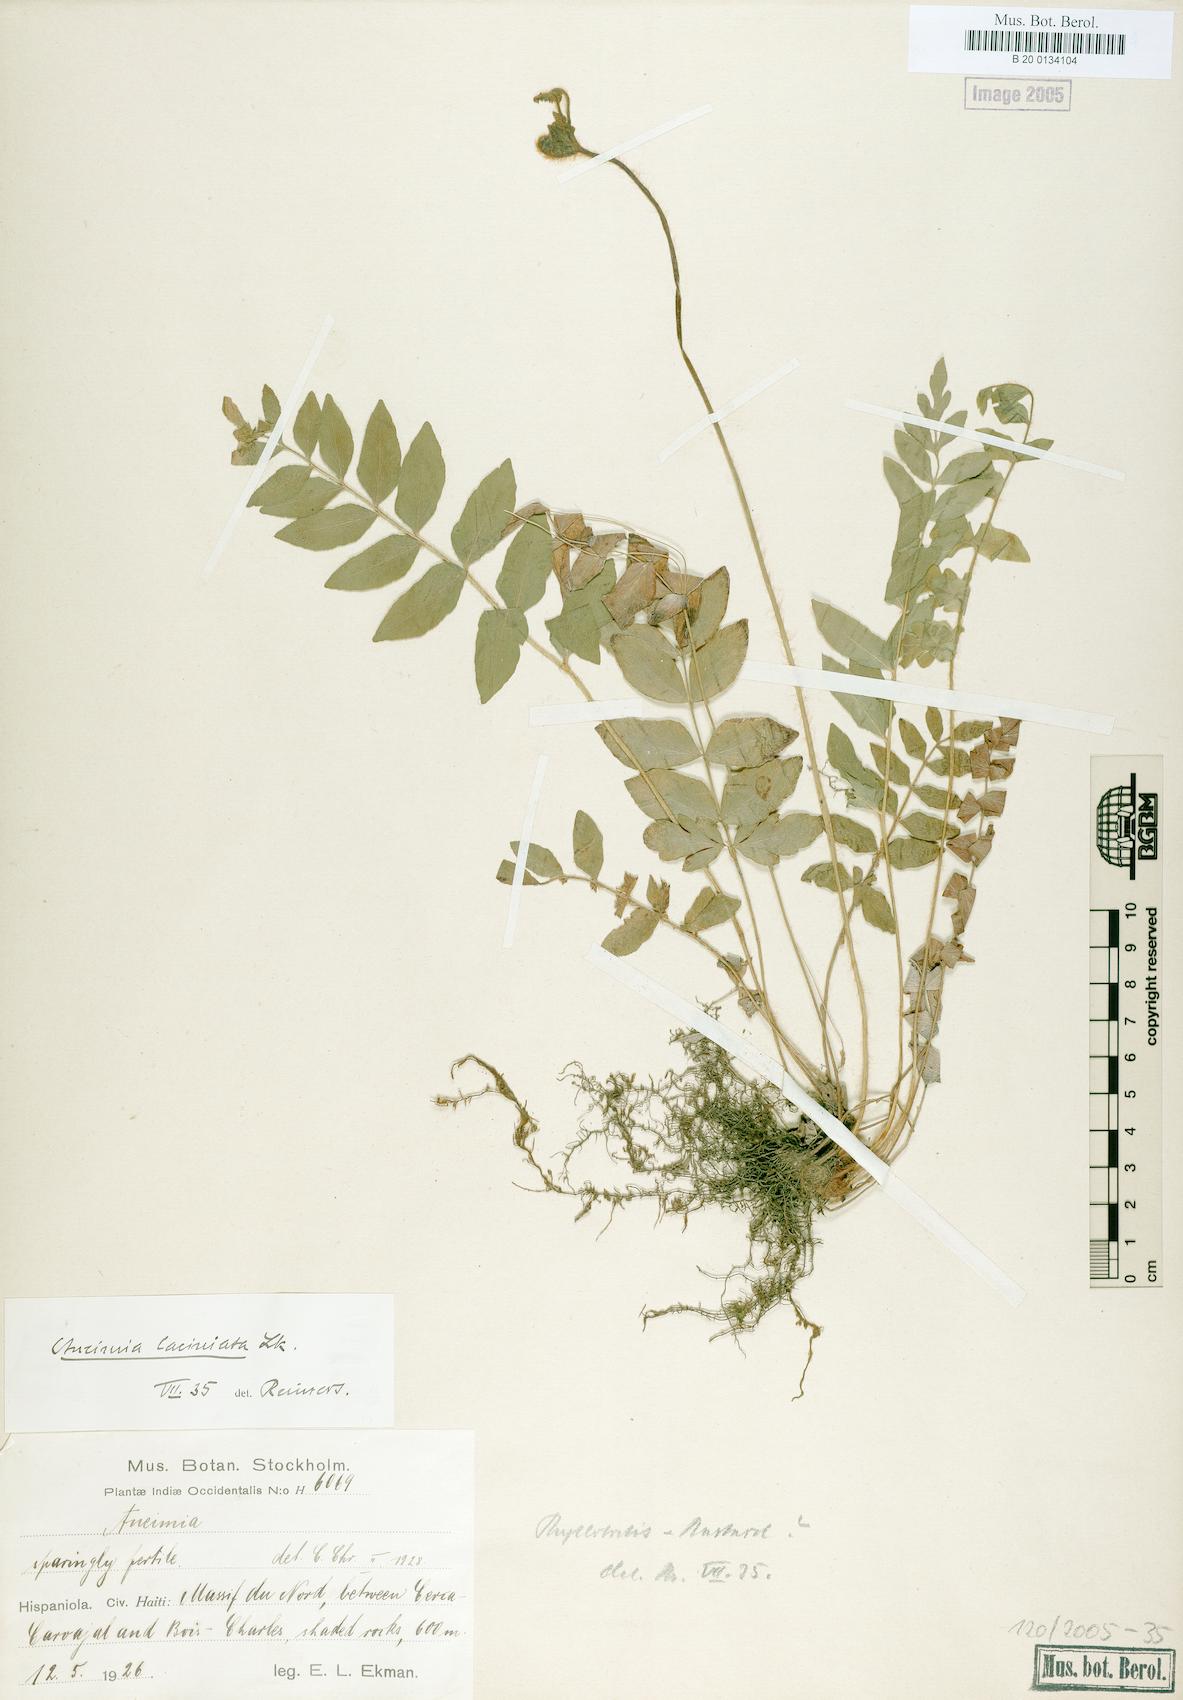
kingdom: Plantae
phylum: Tracheophyta
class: Polypodiopsida
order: Schizaeales
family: Anemiaceae
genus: Anemia
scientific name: Anemia paraphyllitidis
